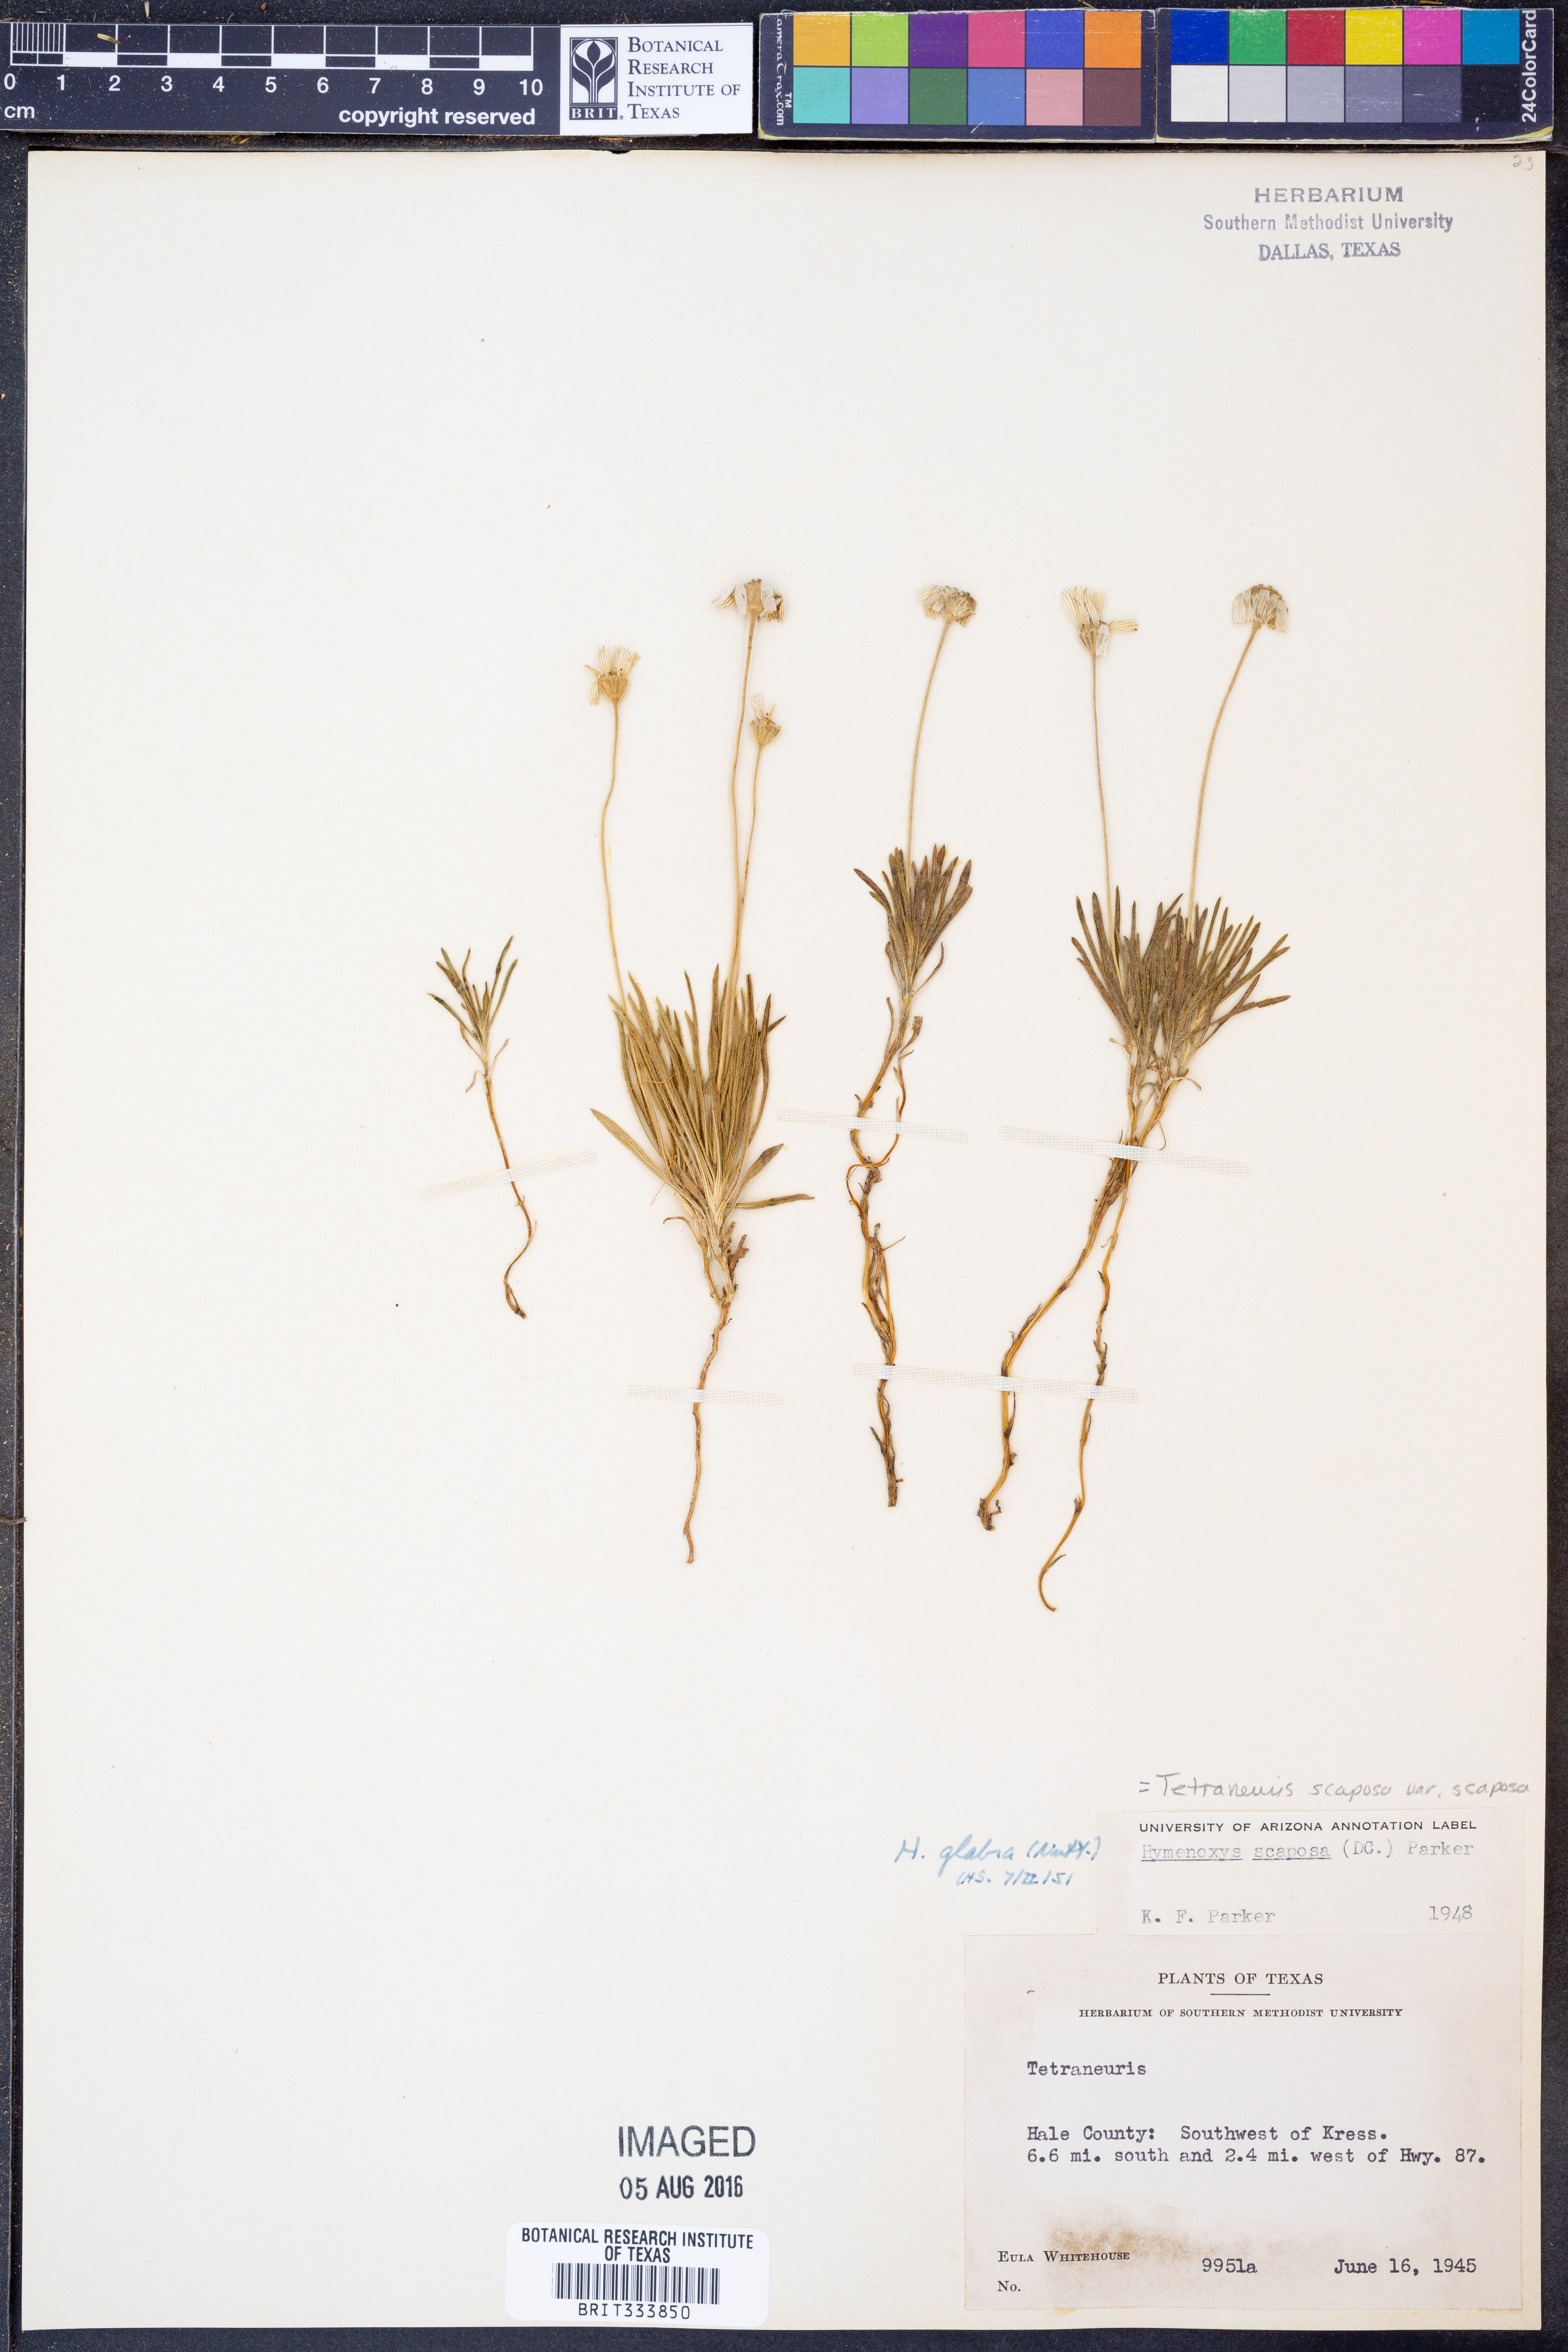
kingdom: Plantae
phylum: Tracheophyta
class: Magnoliopsida
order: Asterales
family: Asteraceae
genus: Tetraneuris
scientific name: Tetraneuris scaposa
